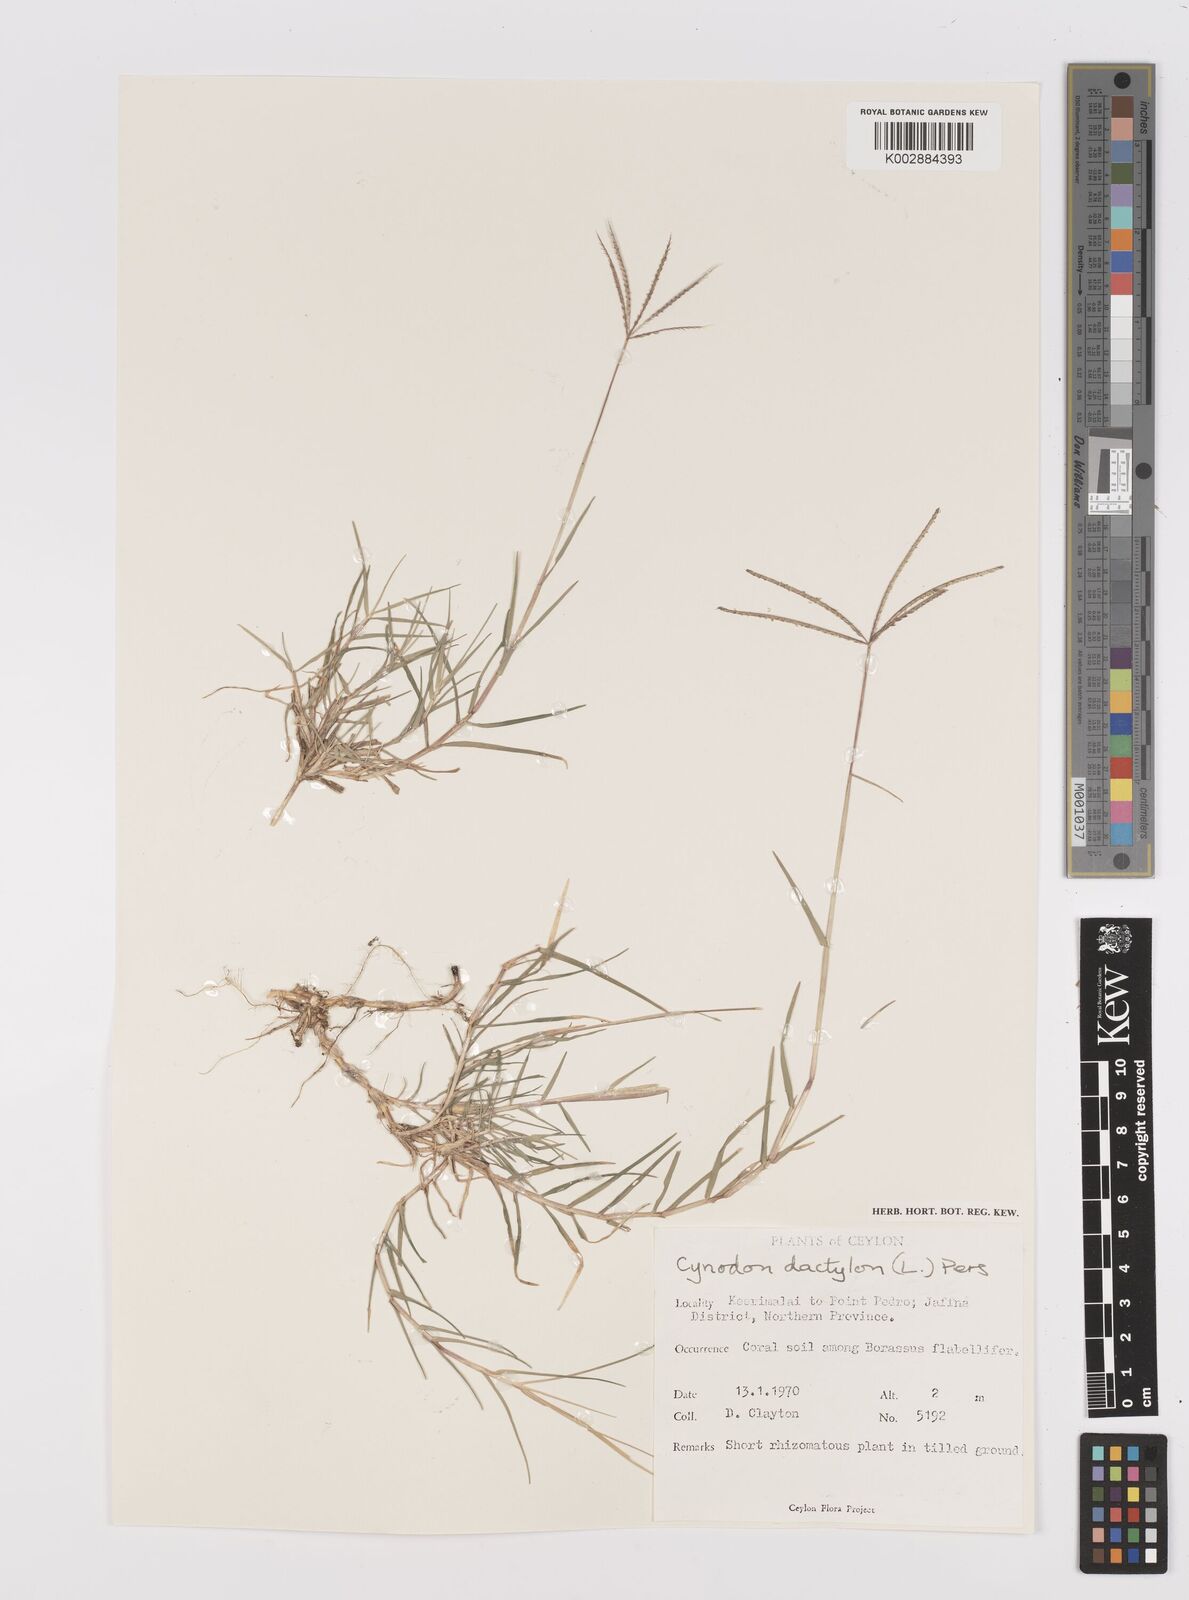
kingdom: Plantae
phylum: Tracheophyta
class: Liliopsida
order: Poales
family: Poaceae
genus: Cynodon
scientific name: Cynodon dactylon
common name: Bermuda grass
